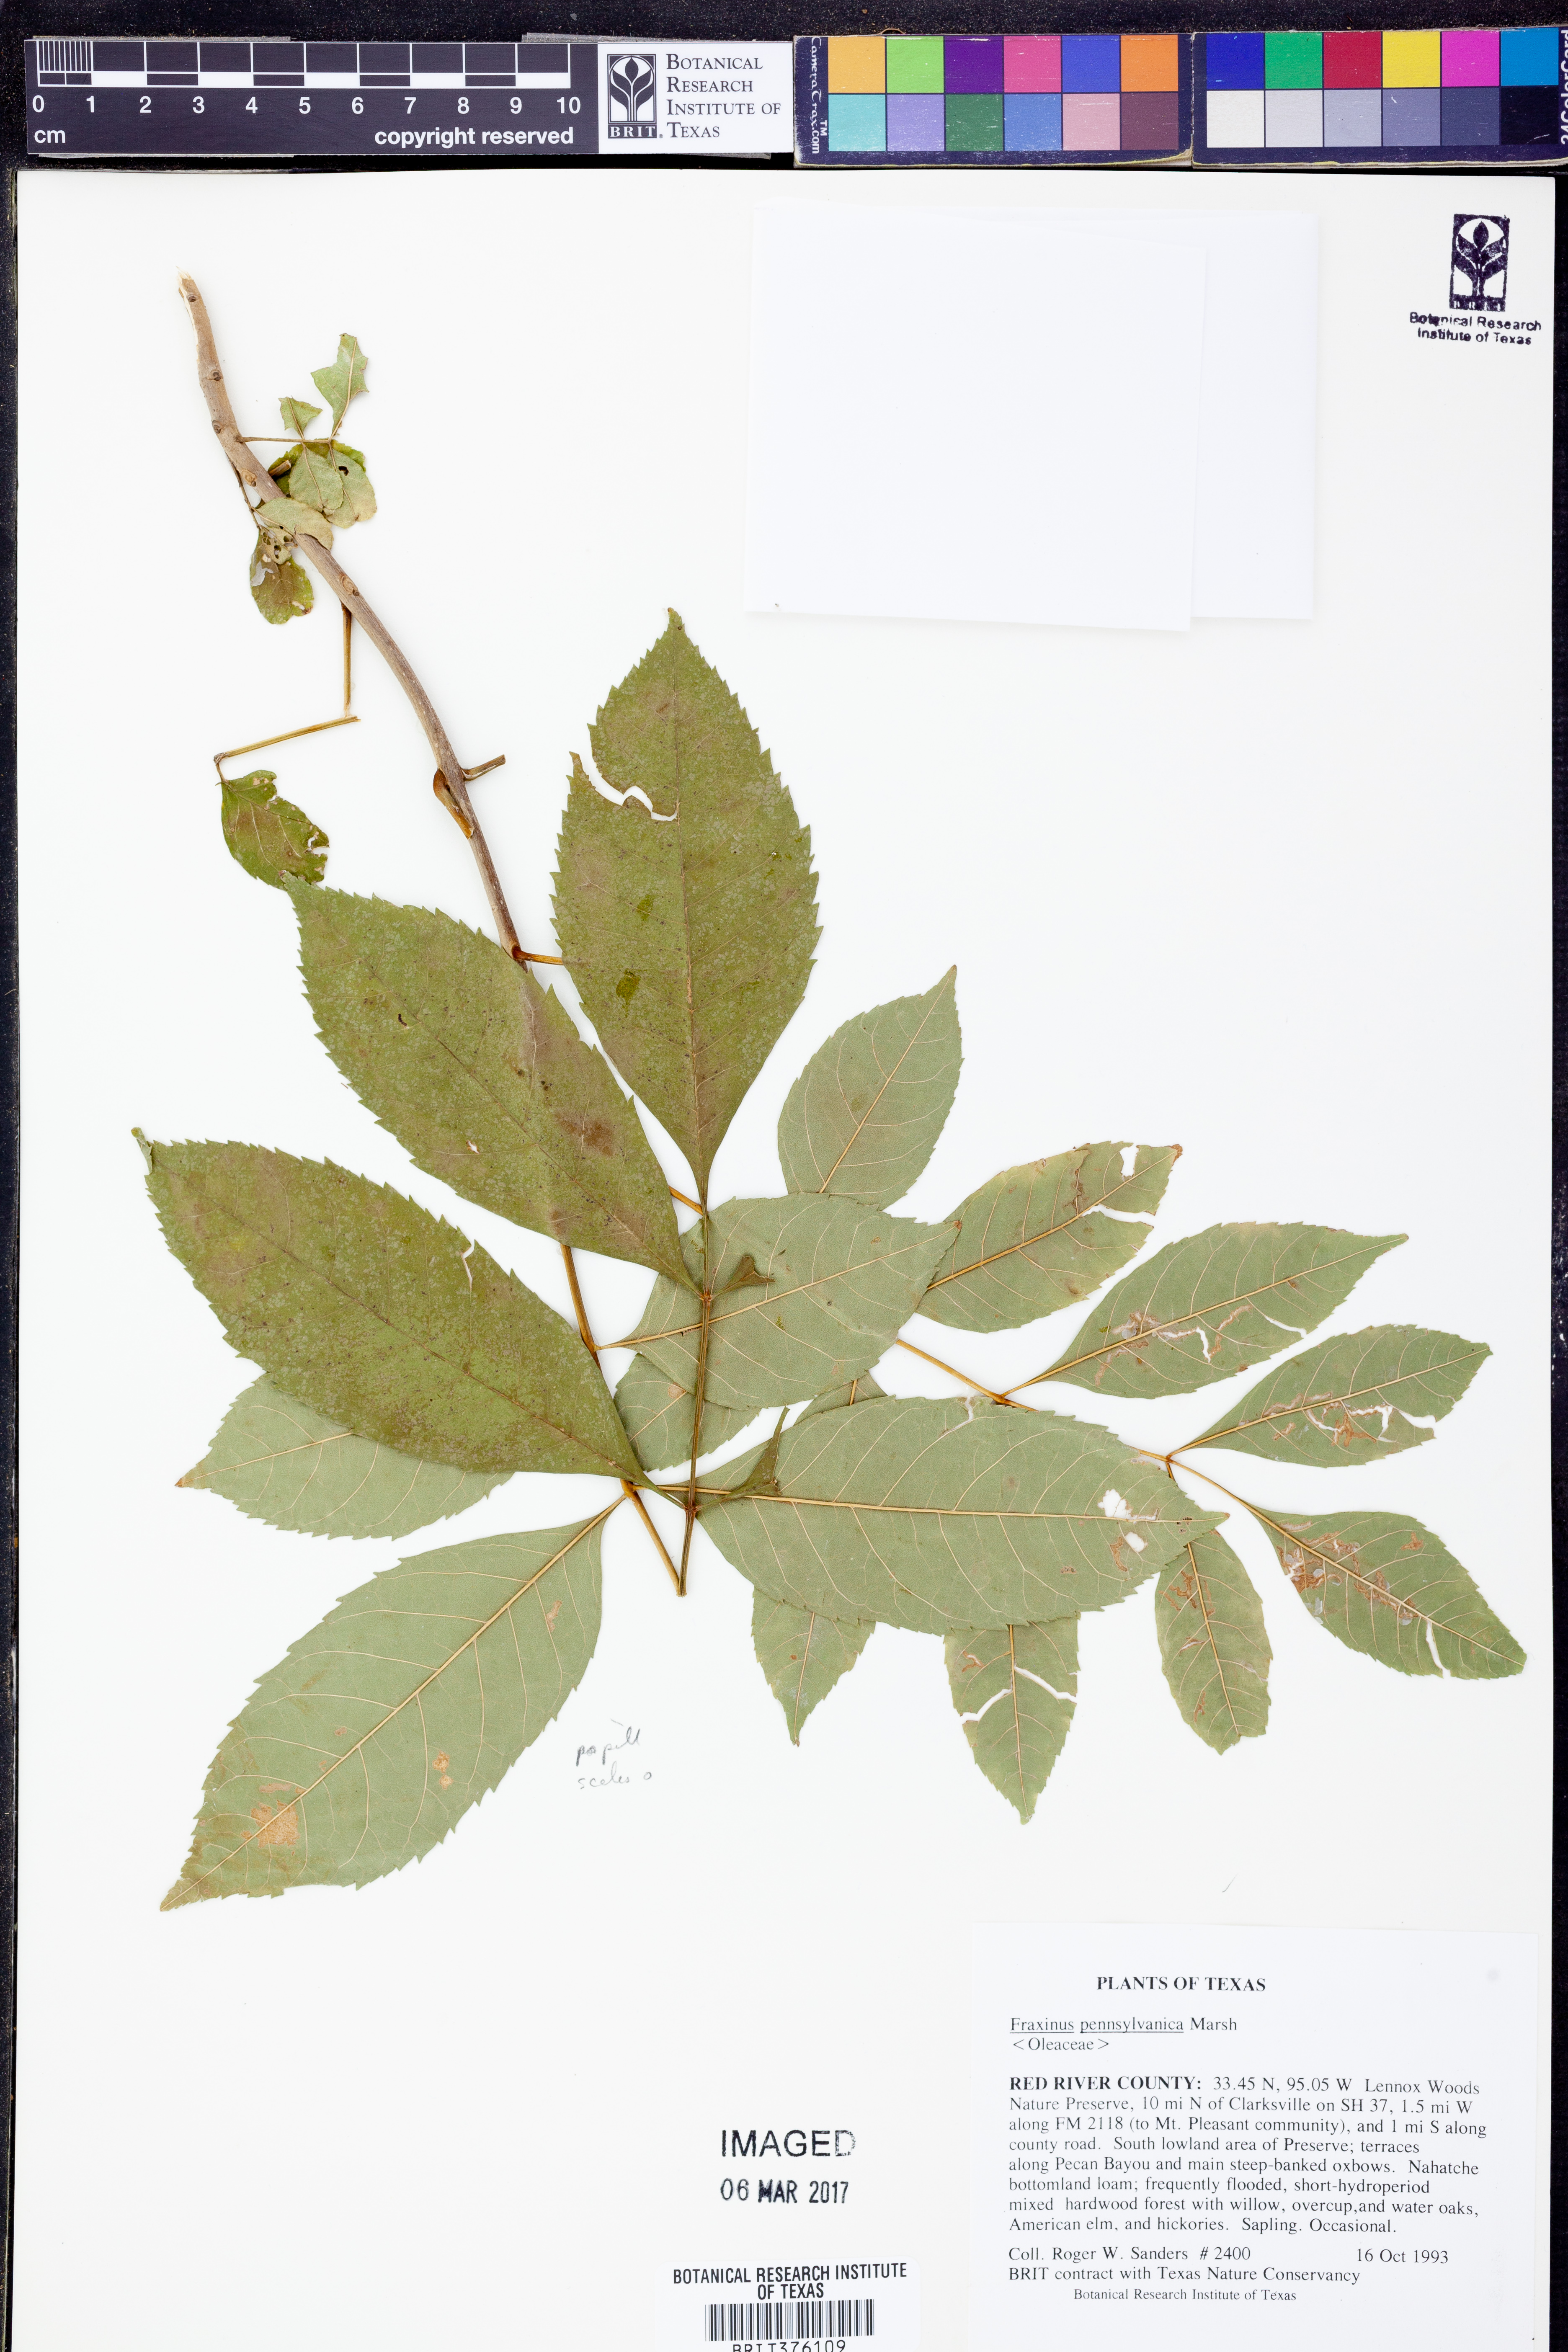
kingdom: Plantae
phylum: Tracheophyta
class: Magnoliopsida
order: Lamiales
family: Oleaceae
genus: Fraxinus
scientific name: Fraxinus pennsylvanica
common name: Green ash
